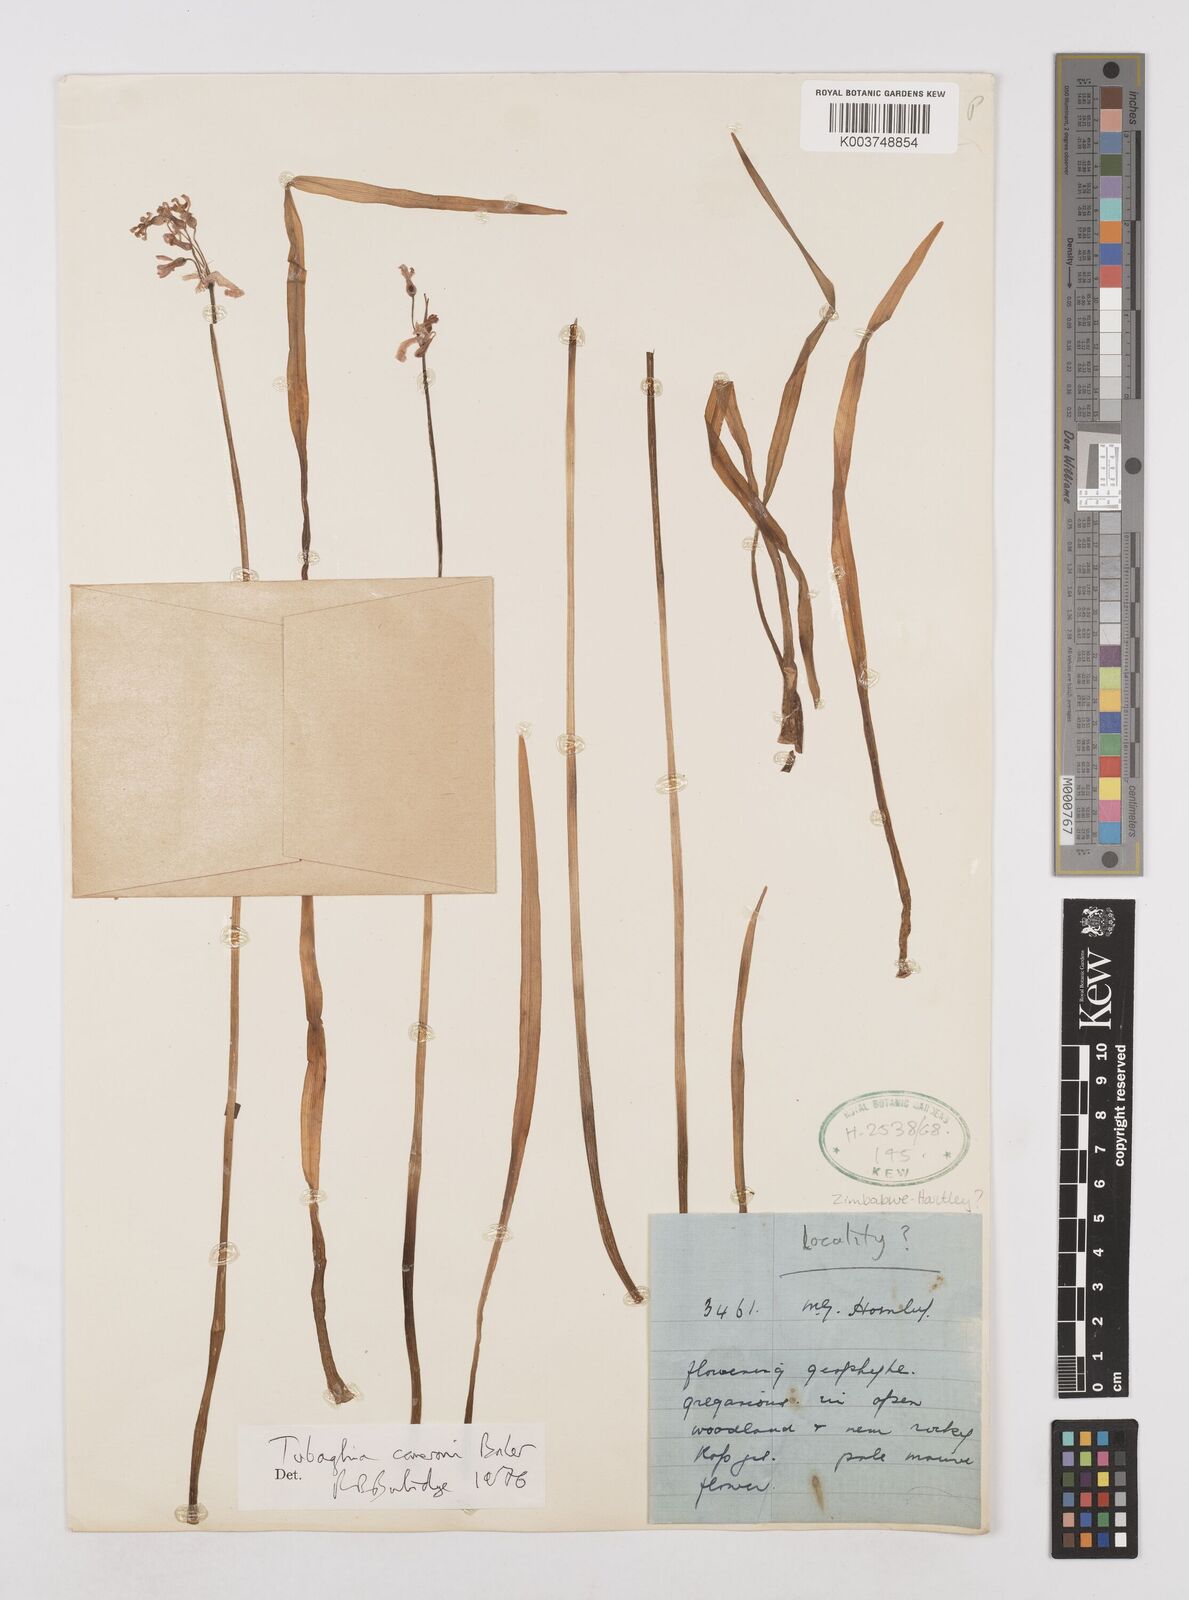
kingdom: Plantae
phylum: Tracheophyta
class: Liliopsida
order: Asparagales
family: Amaryllidaceae
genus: Tulbaghia
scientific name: Tulbaghia cameronii
